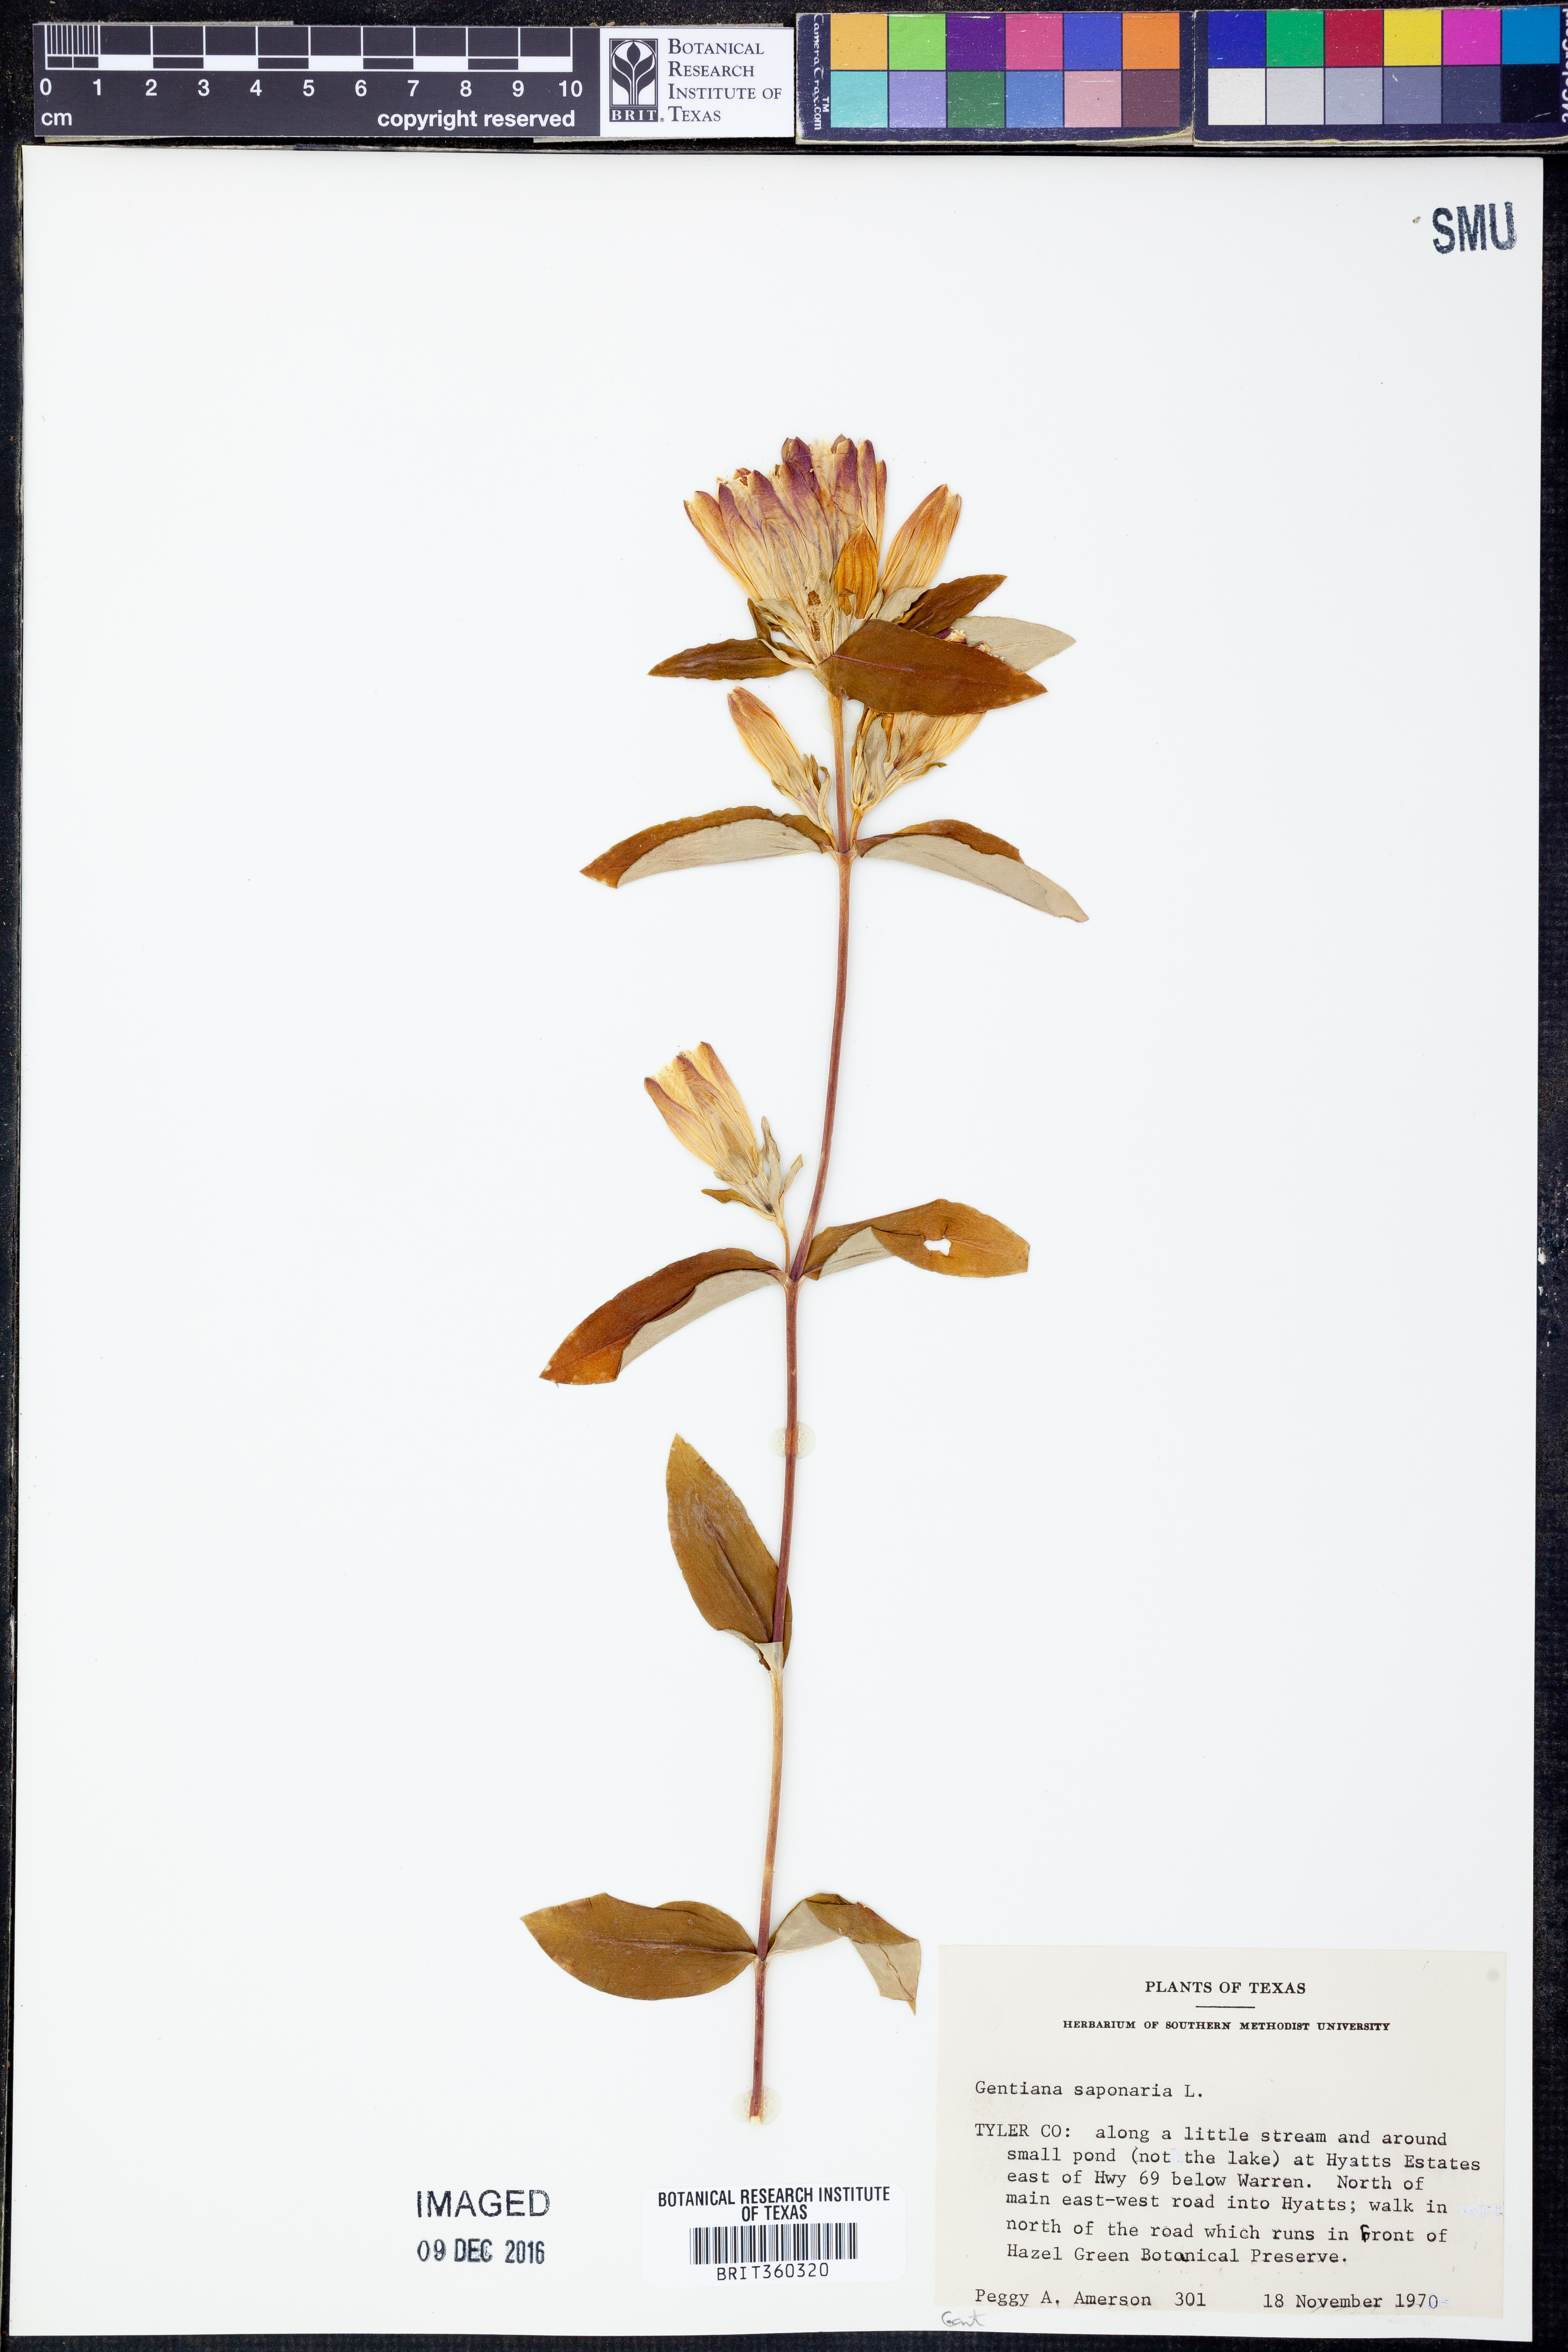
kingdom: Plantae
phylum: Tracheophyta
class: Magnoliopsida
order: Gentianales
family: Gentianaceae
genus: Gentiana
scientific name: Gentiana saponaria
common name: Soapwort gentian
